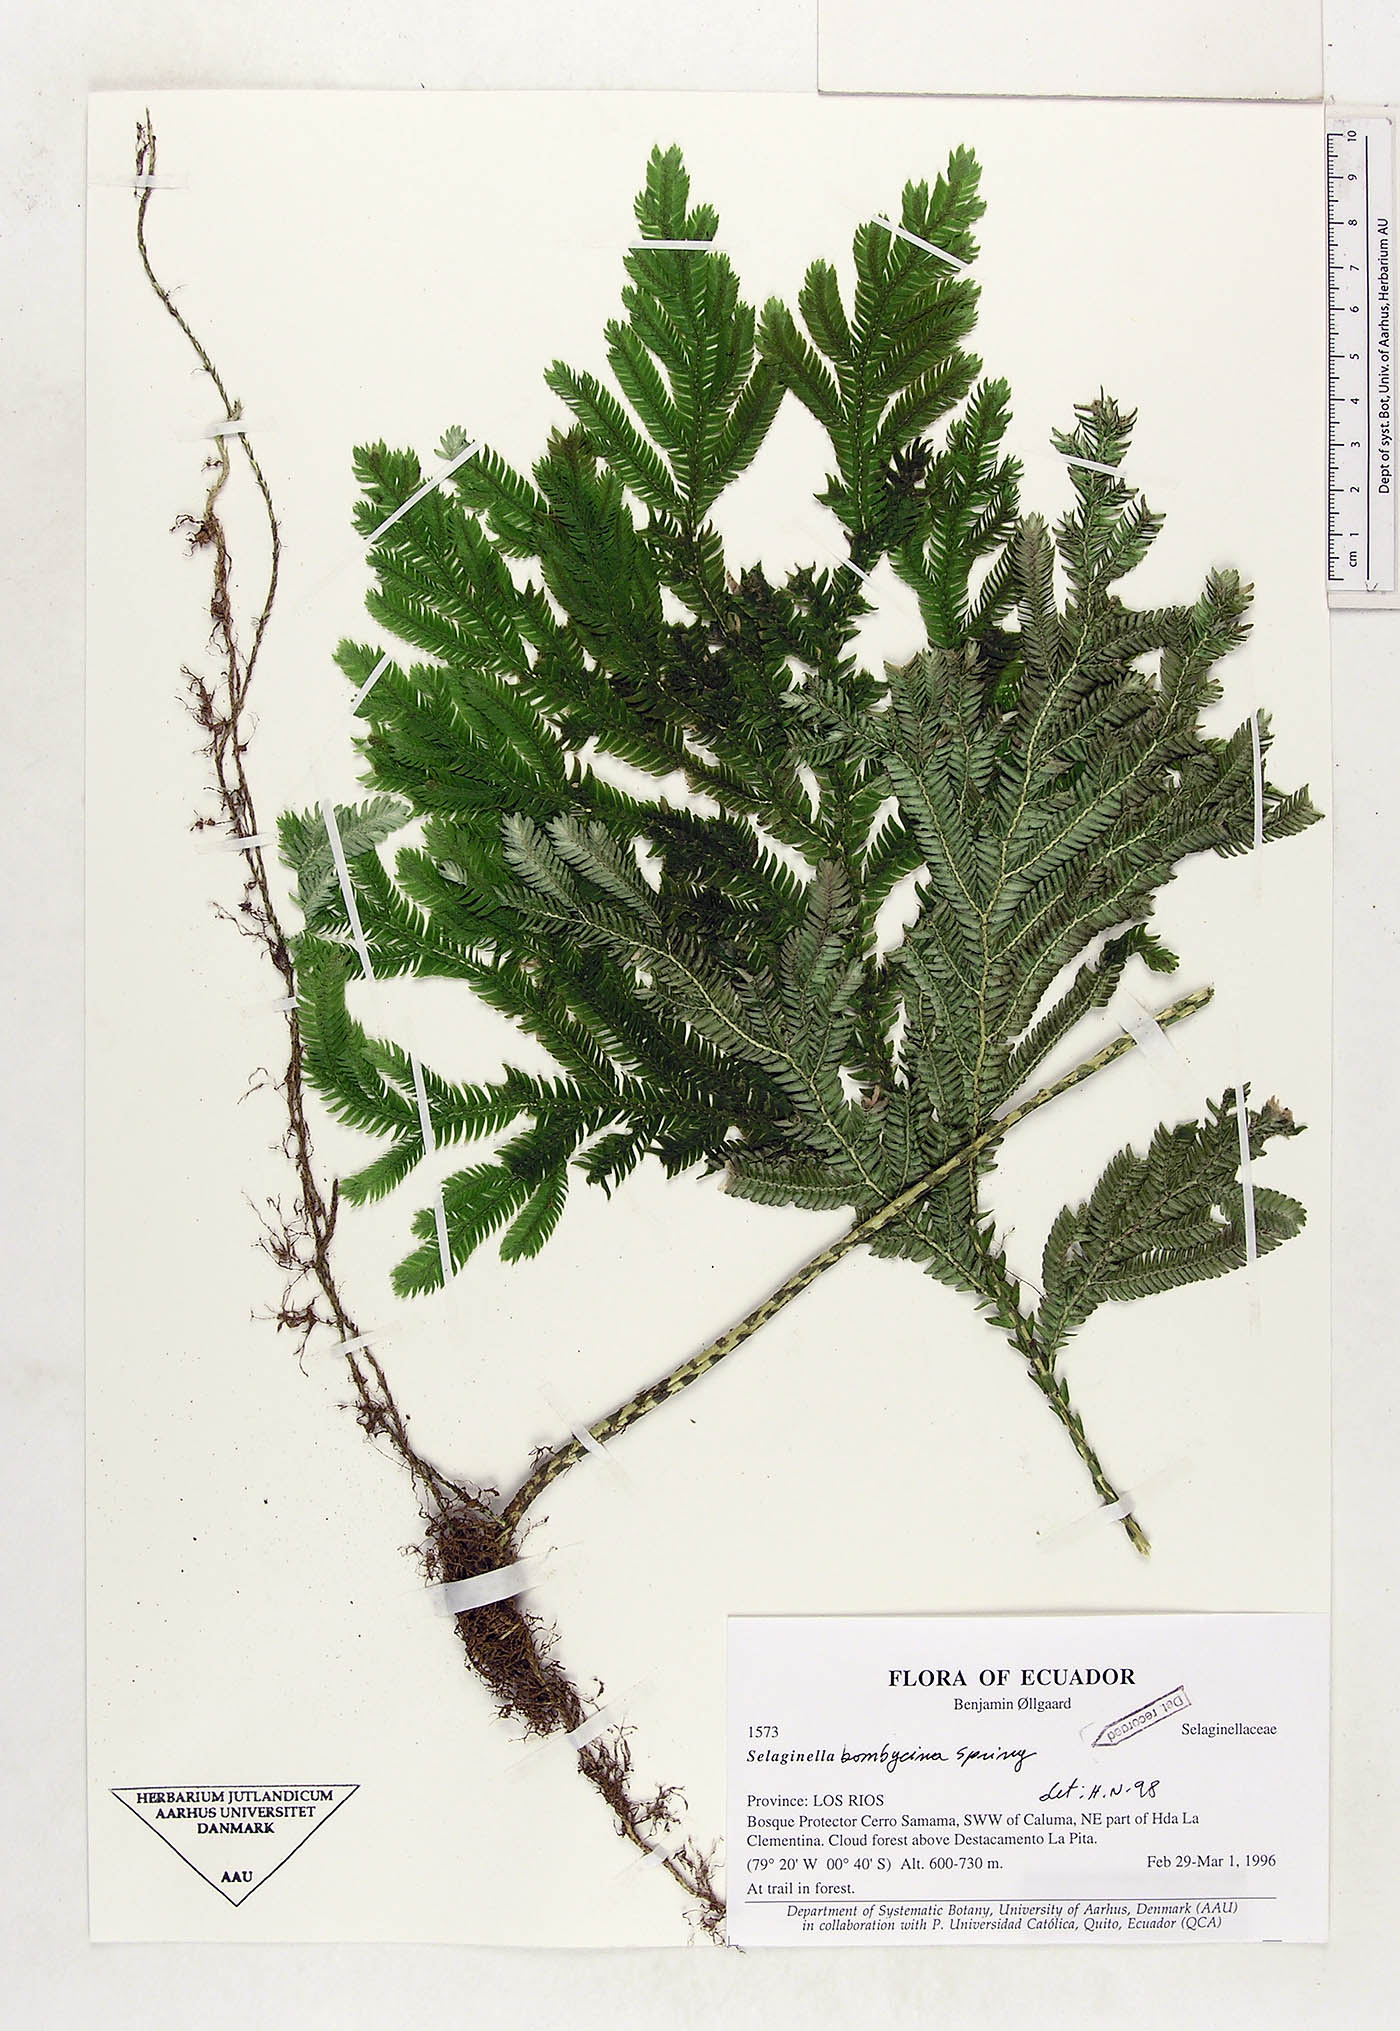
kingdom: Plantae
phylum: Tracheophyta
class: Lycopodiopsida
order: Selaginellales
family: Selaginellaceae
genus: Selaginella
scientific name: Selaginella bombycina
